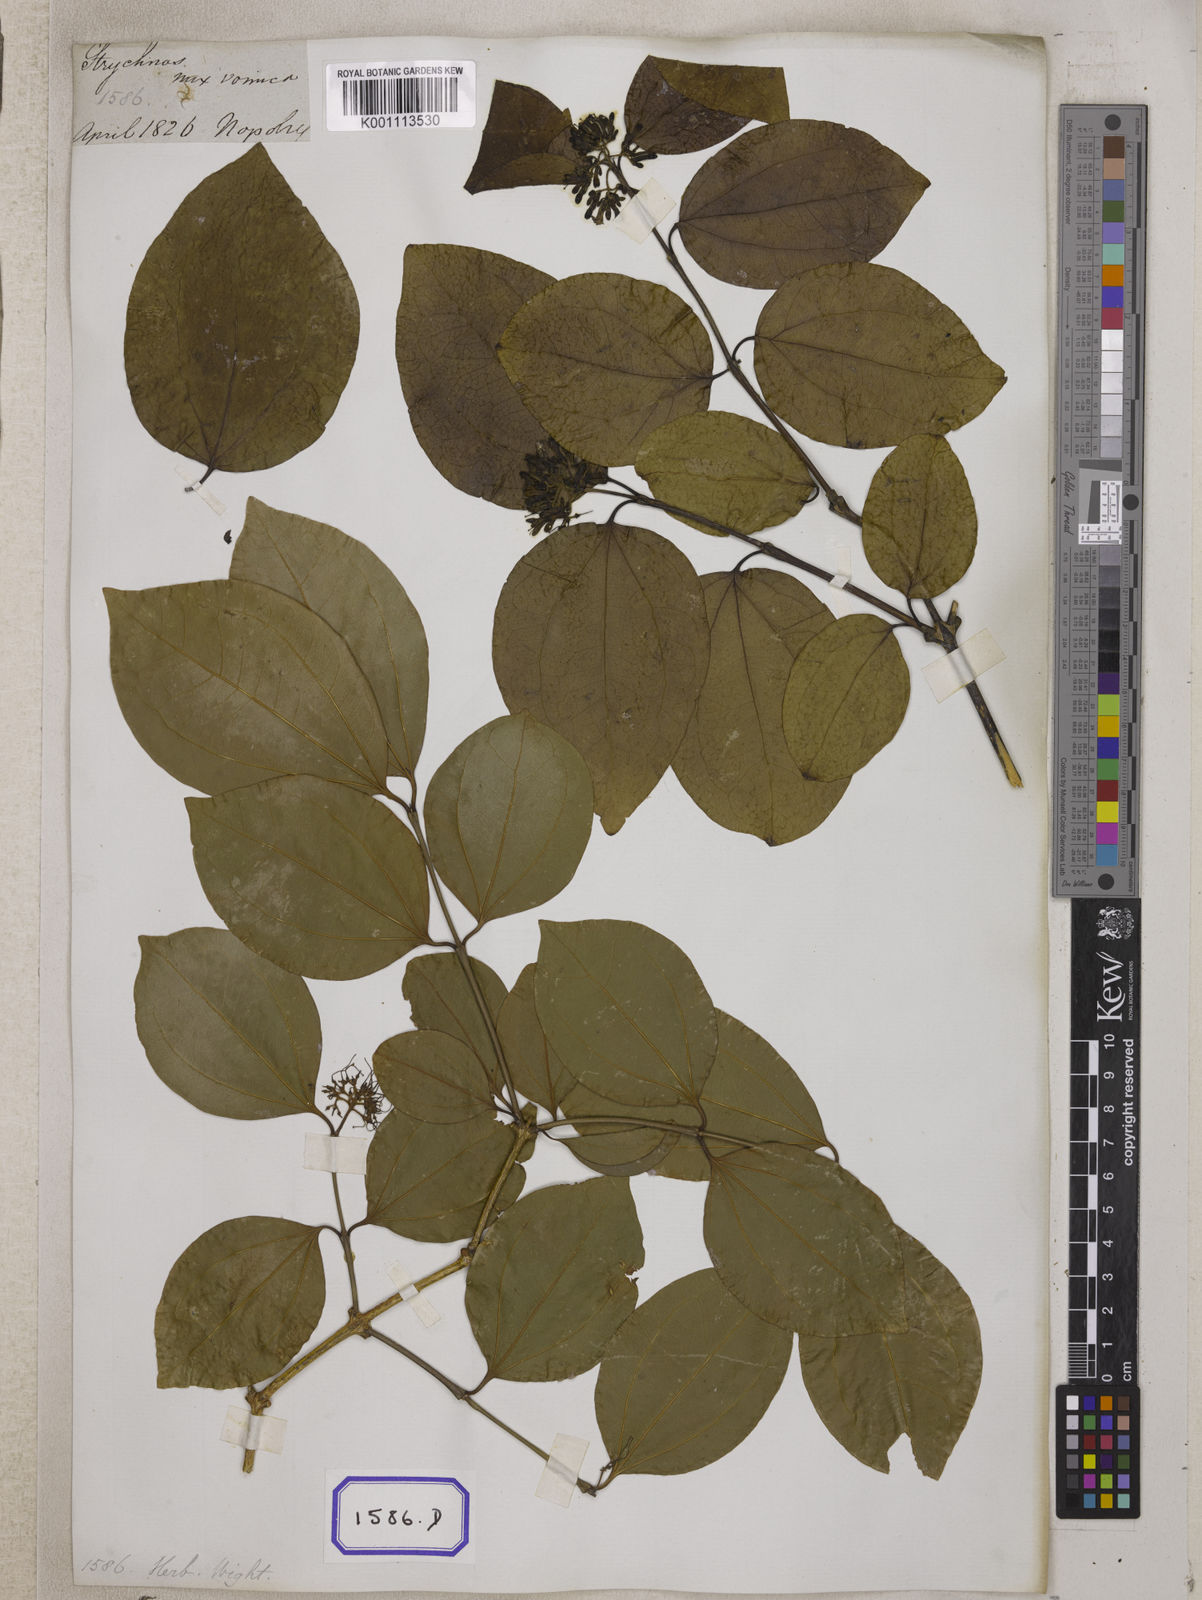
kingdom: Plantae
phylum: Tracheophyta
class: Magnoliopsida
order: Gentianales
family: Loganiaceae
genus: Strychnos
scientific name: Strychnos nux-vomica
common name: Strychninetree
